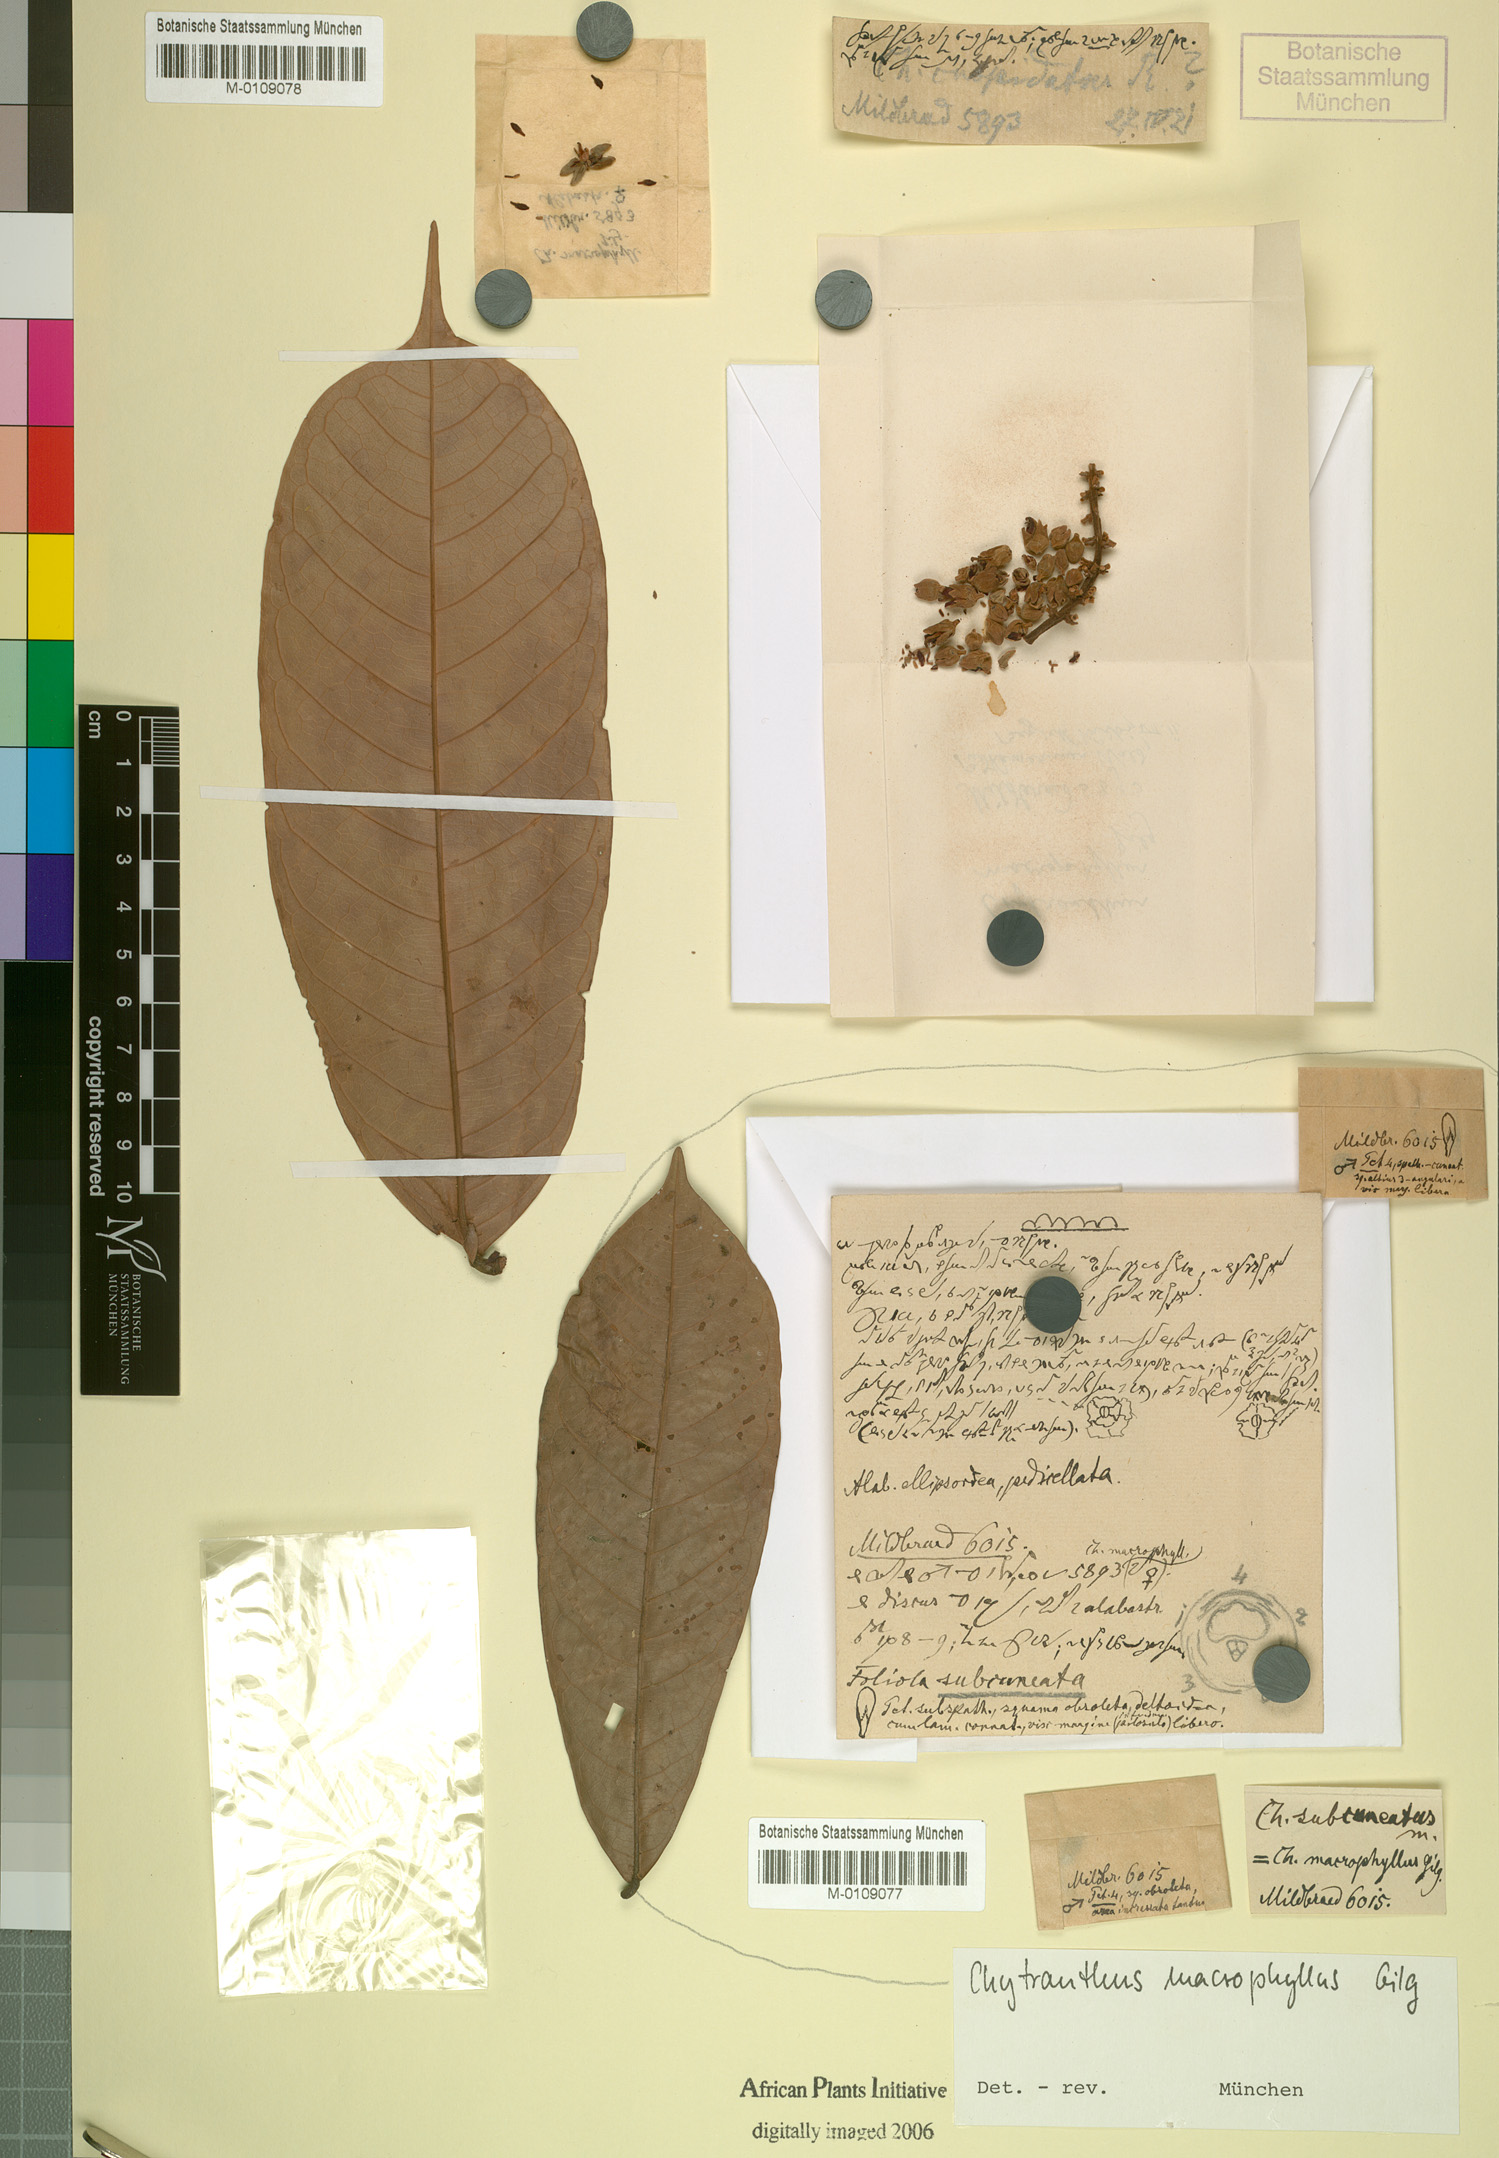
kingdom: Plantae
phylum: Tracheophyta
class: Magnoliopsida
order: Sapindales
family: Sapindaceae
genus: Chytranthus
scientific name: Chytranthus macrophyllus
